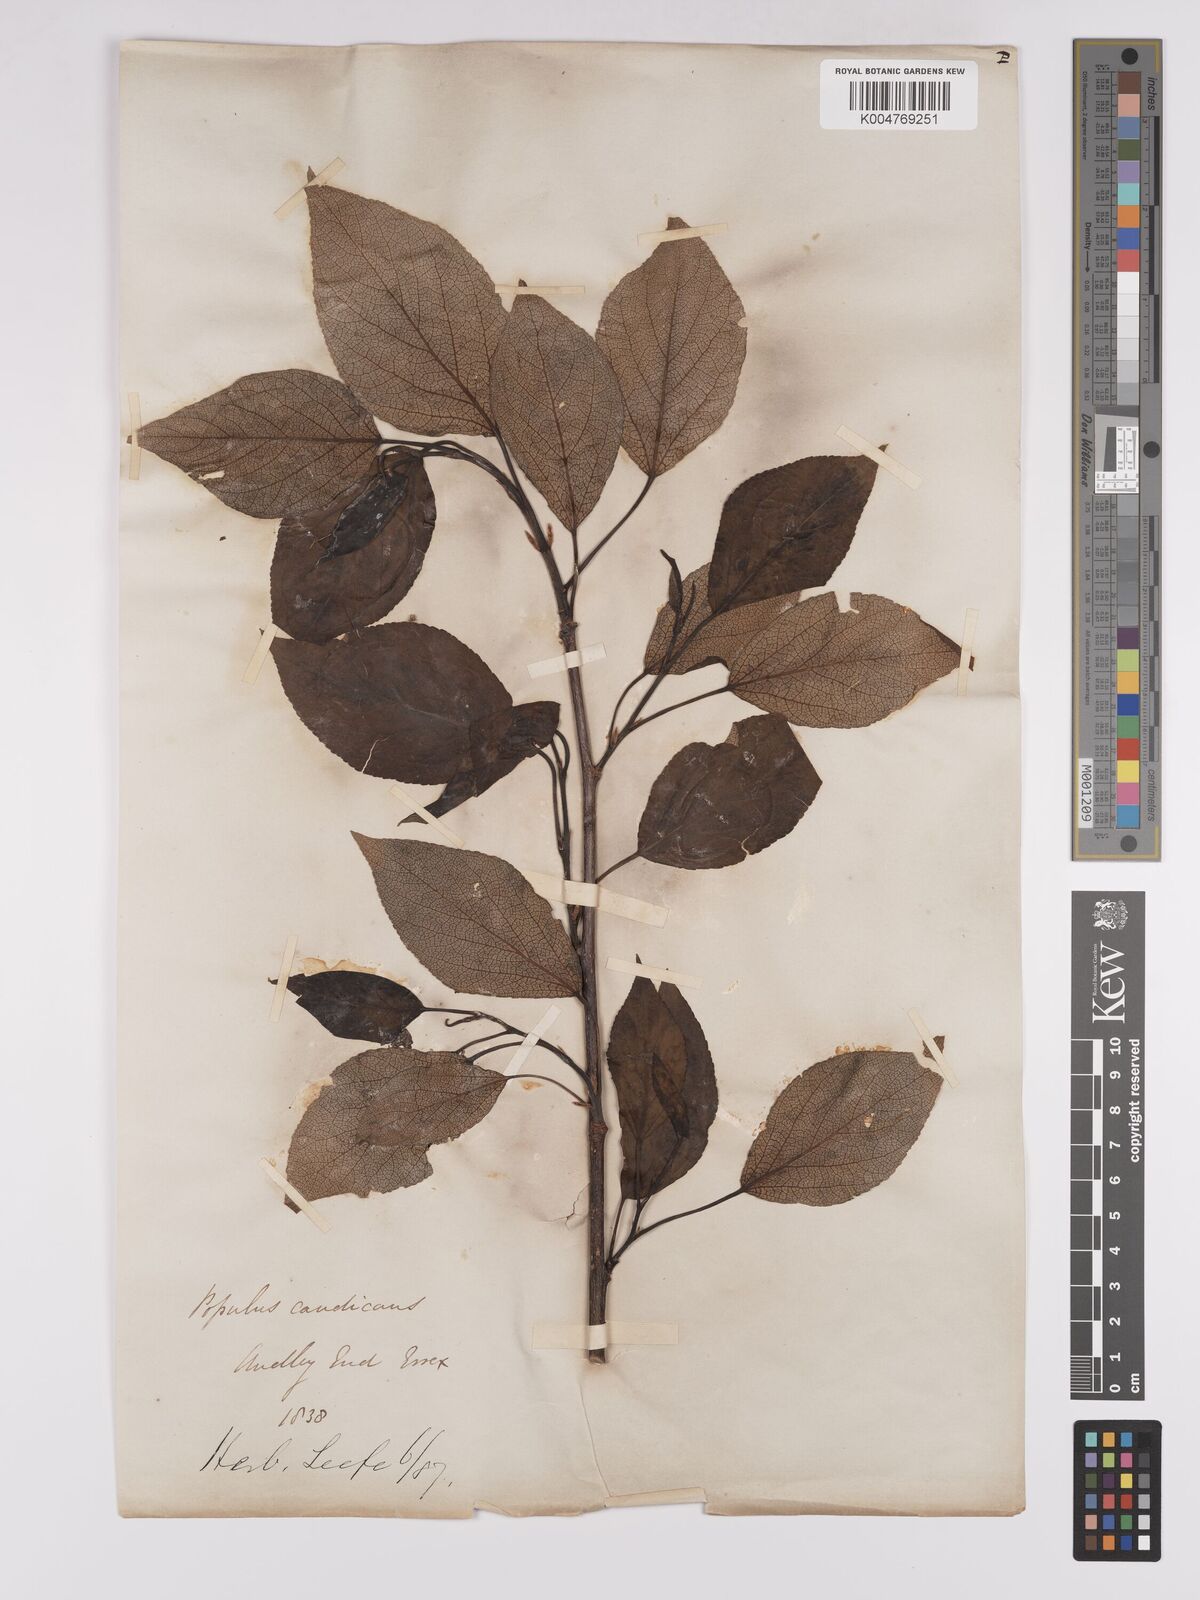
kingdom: Plantae
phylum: Tracheophyta
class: Magnoliopsida
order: Malpighiales
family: Salicaceae
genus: Populus
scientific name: Populus balsamifera
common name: Balsam poplar
